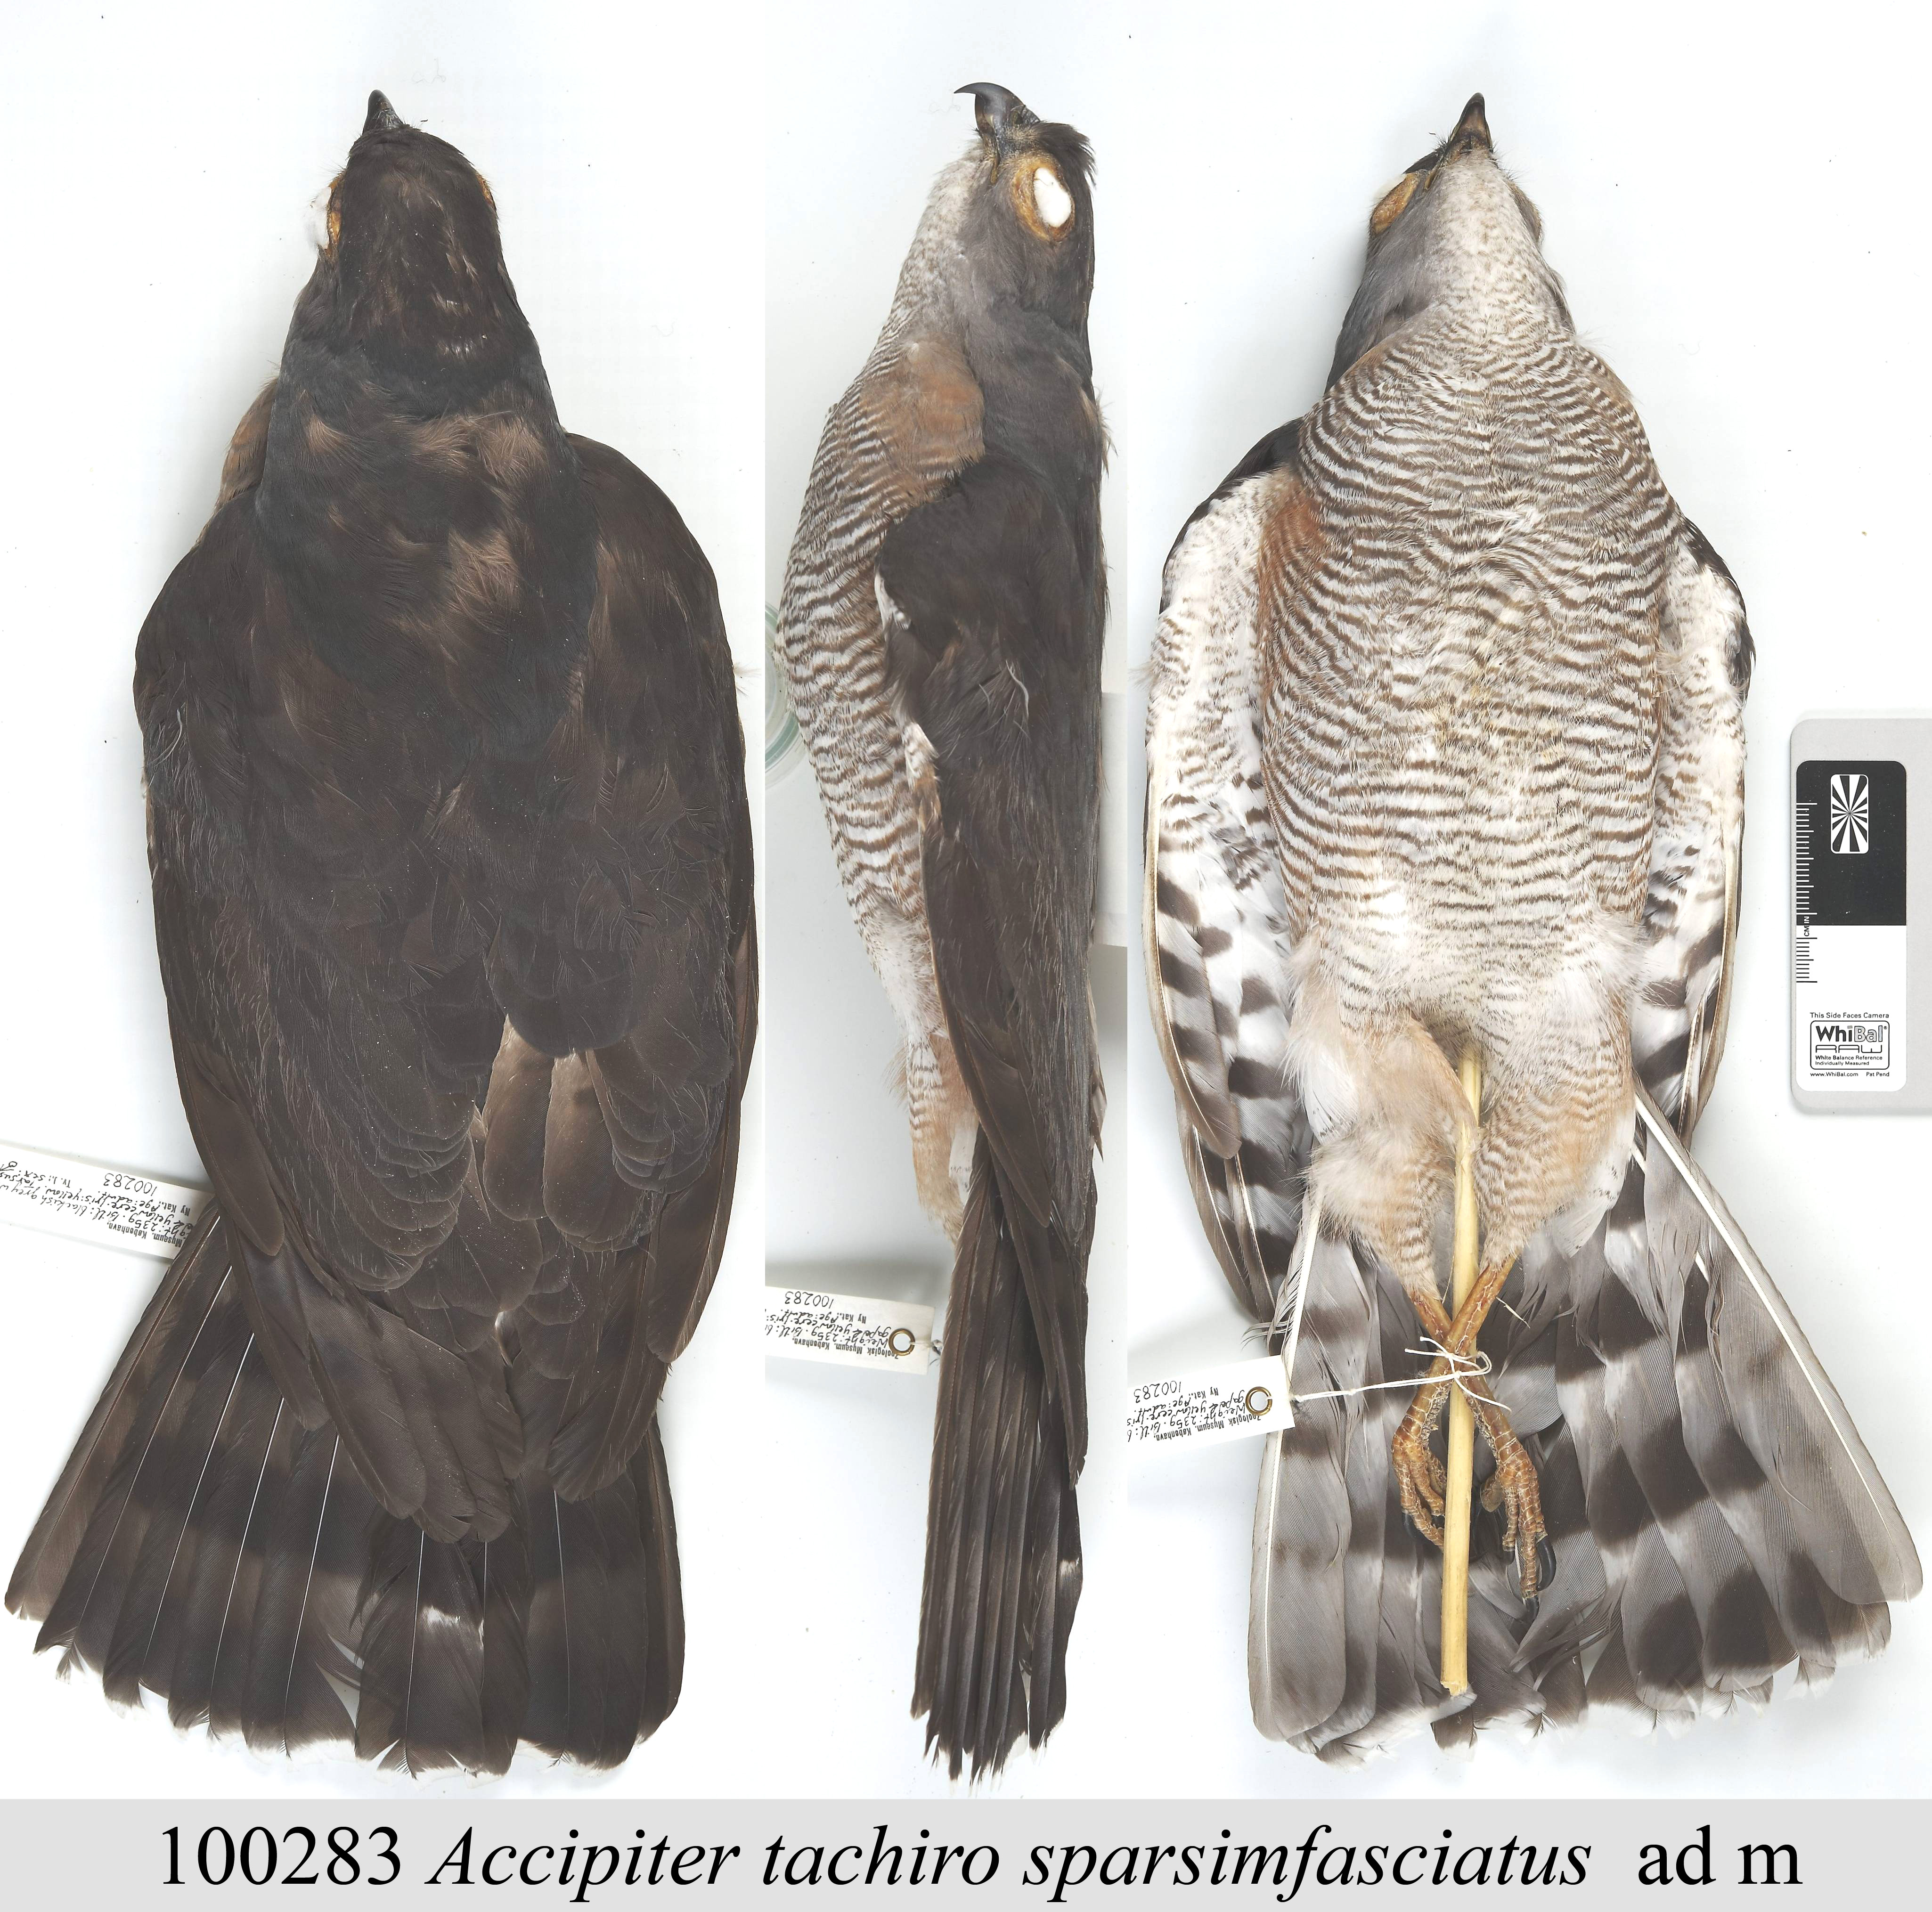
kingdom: Animalia
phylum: Chordata
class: Aves
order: Accipitriformes
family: Accipitridae
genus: Accipiter
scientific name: Accipiter tachiro
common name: African goshawk
